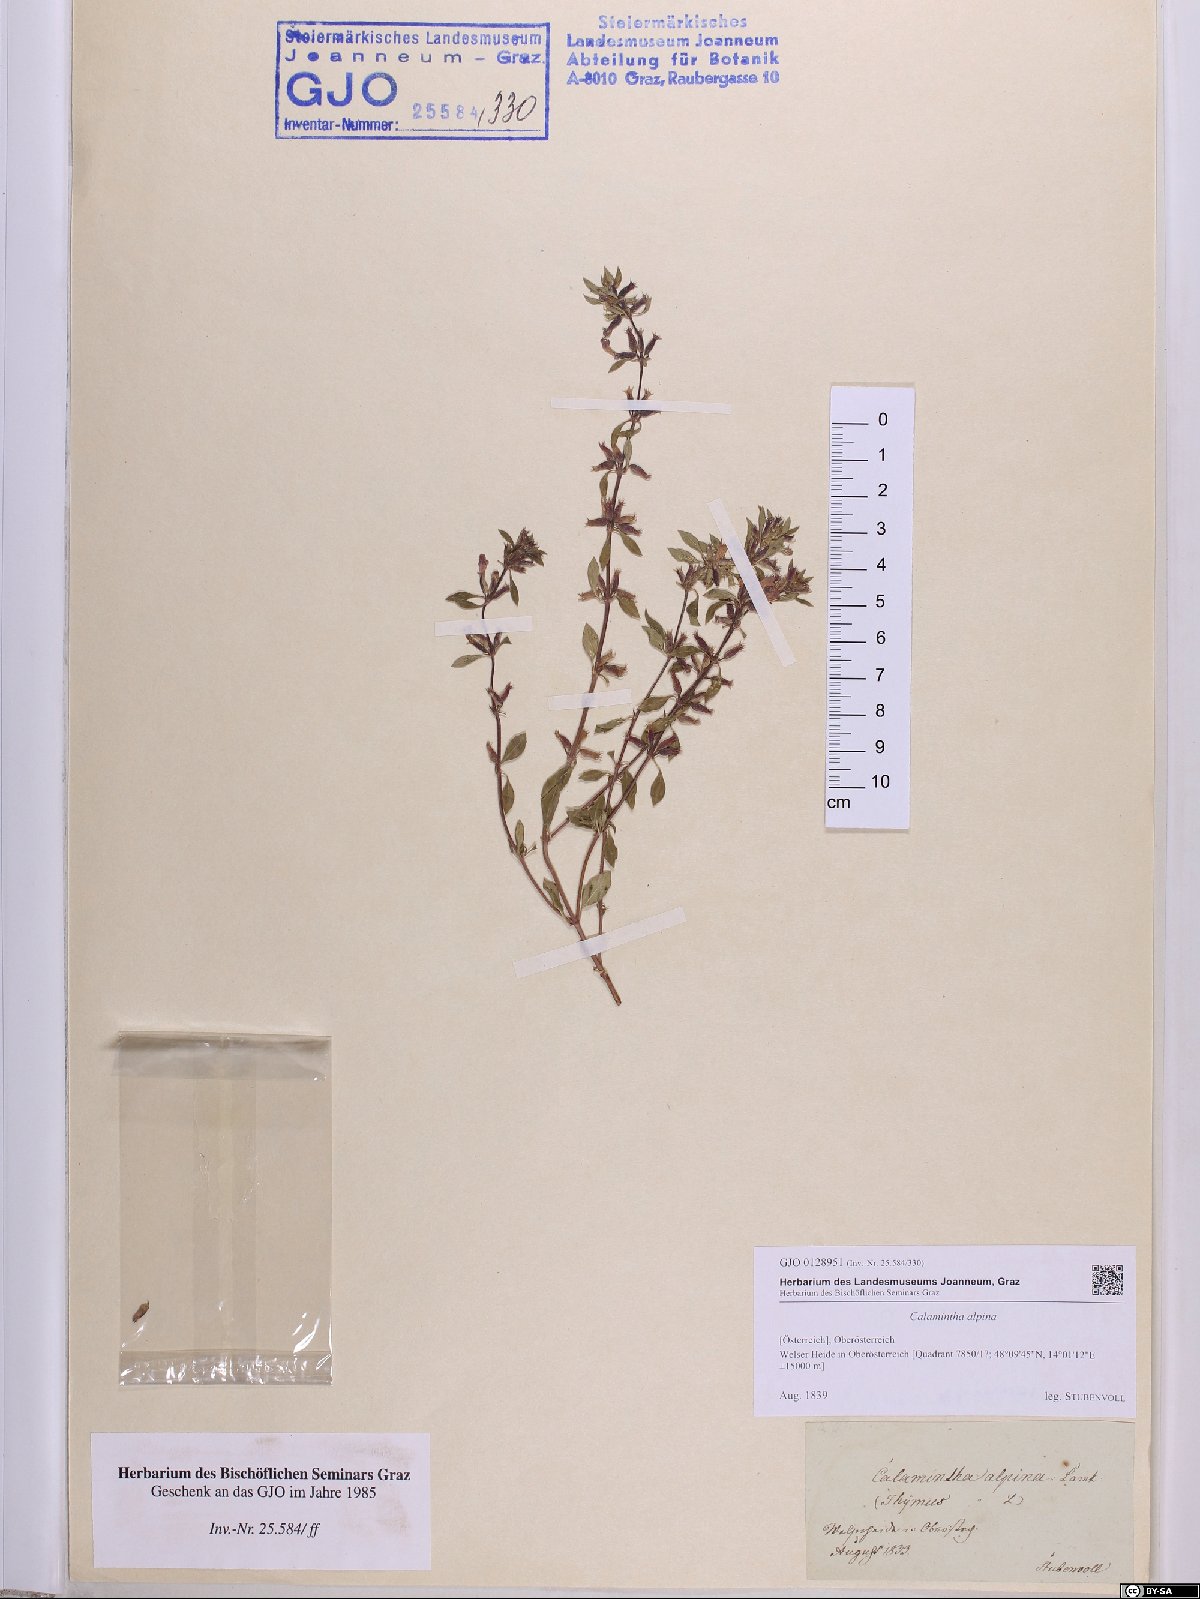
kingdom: Plantae
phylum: Tracheophyta
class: Magnoliopsida
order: Lamiales
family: Lamiaceae
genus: Clinopodium
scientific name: Clinopodium alpinum
